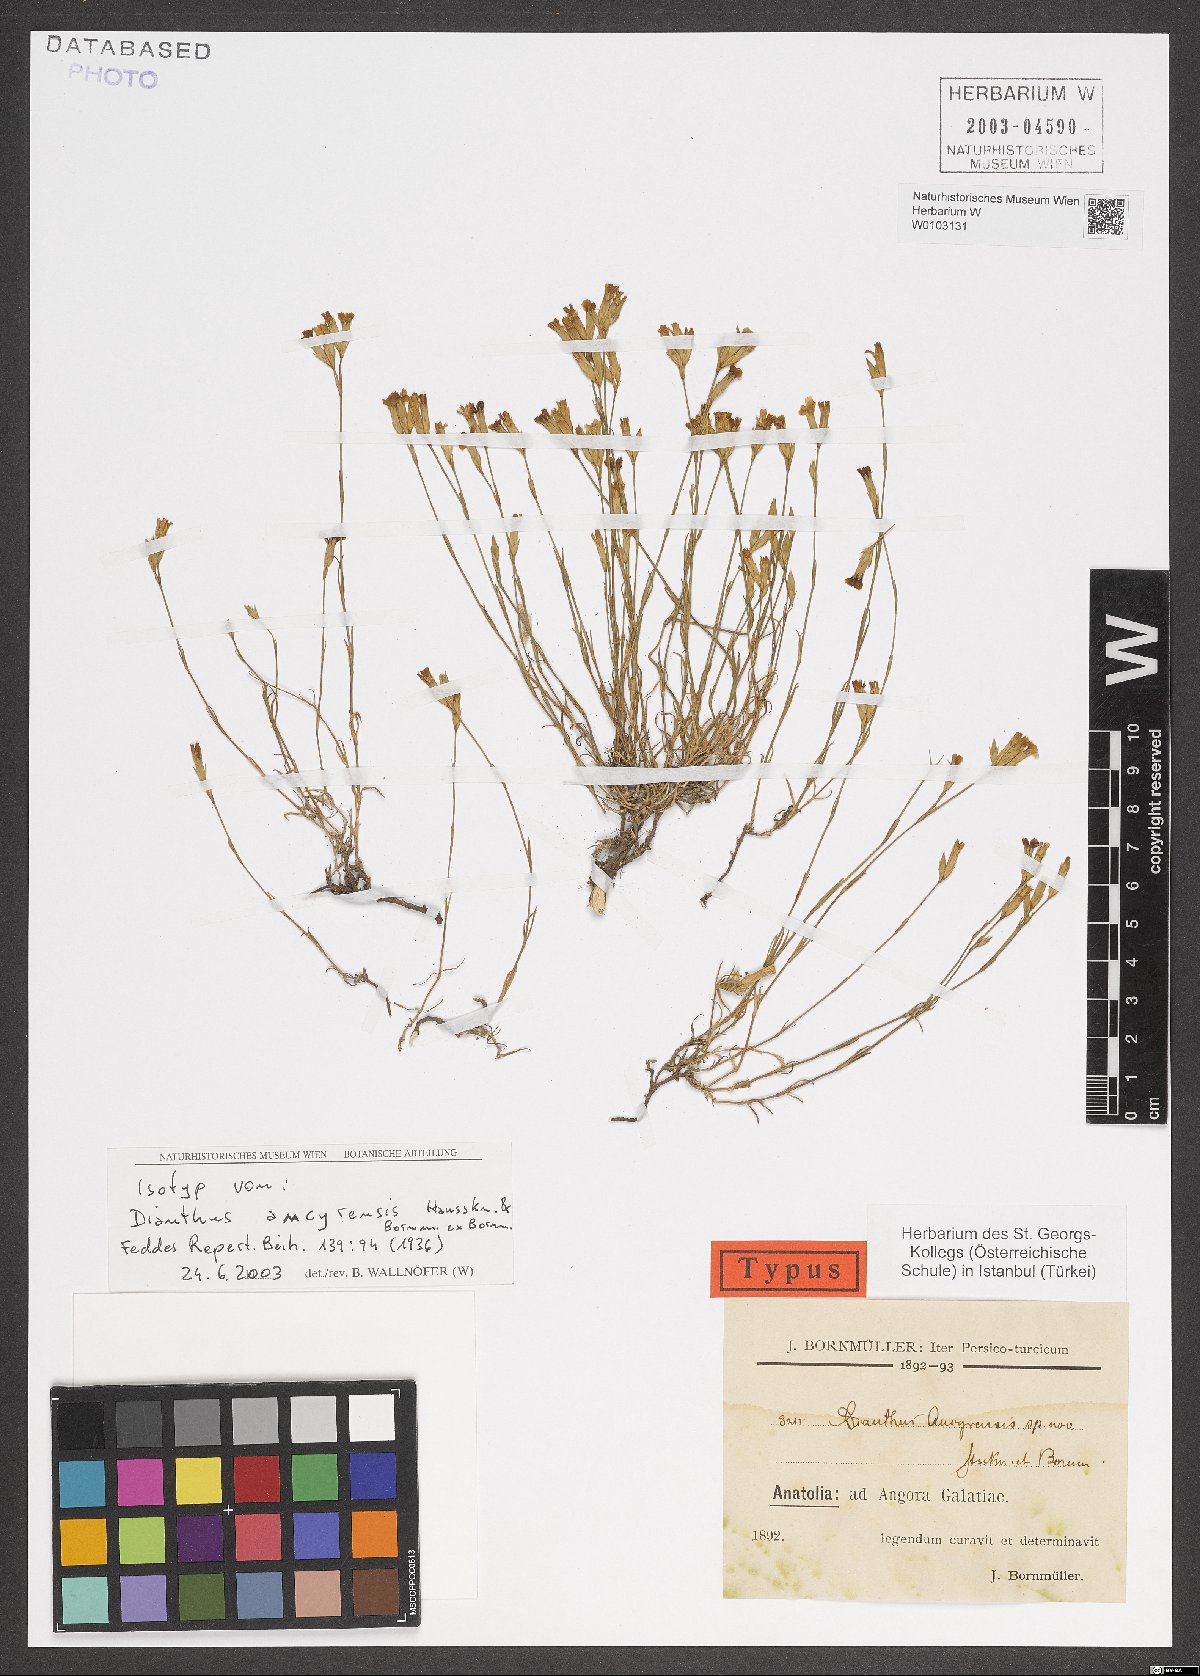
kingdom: Plantae
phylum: Tracheophyta
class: Magnoliopsida
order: Caryophyllales
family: Caryophyllaceae
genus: Dianthus
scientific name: Dianthus ancyrensis
